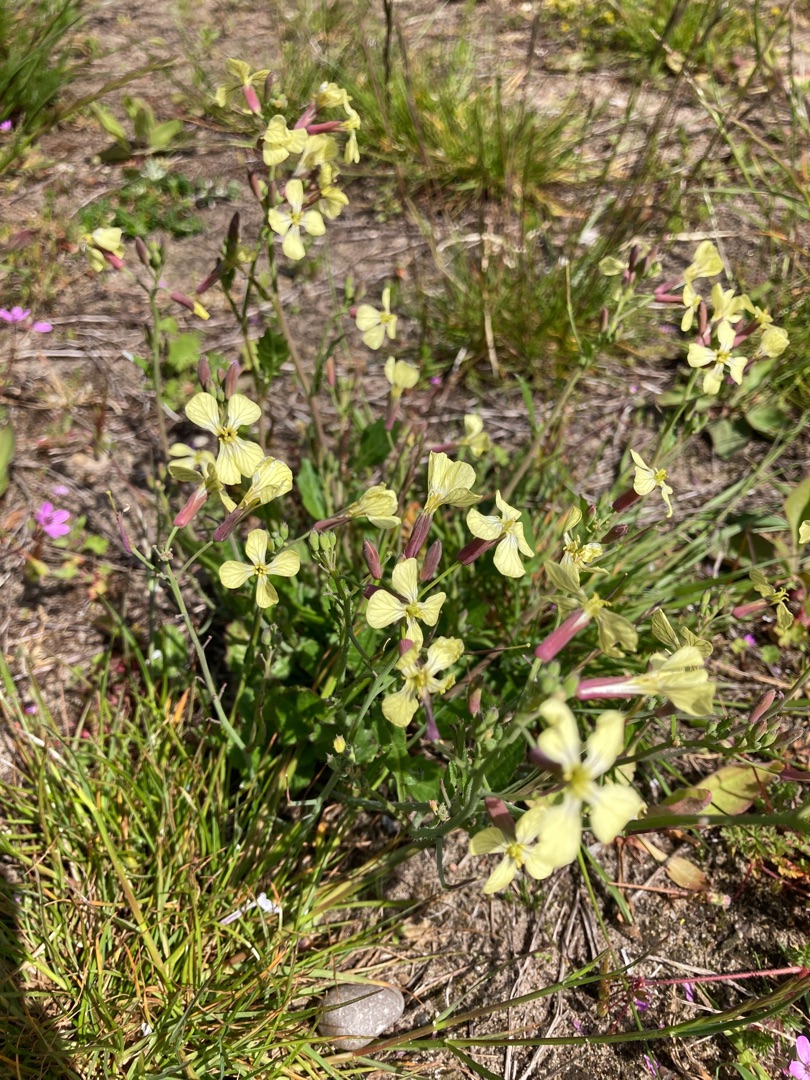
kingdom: Plantae
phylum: Tracheophyta
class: Magnoliopsida
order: Brassicales
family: Brassicaceae
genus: Eruca
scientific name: Eruca vesicaria
